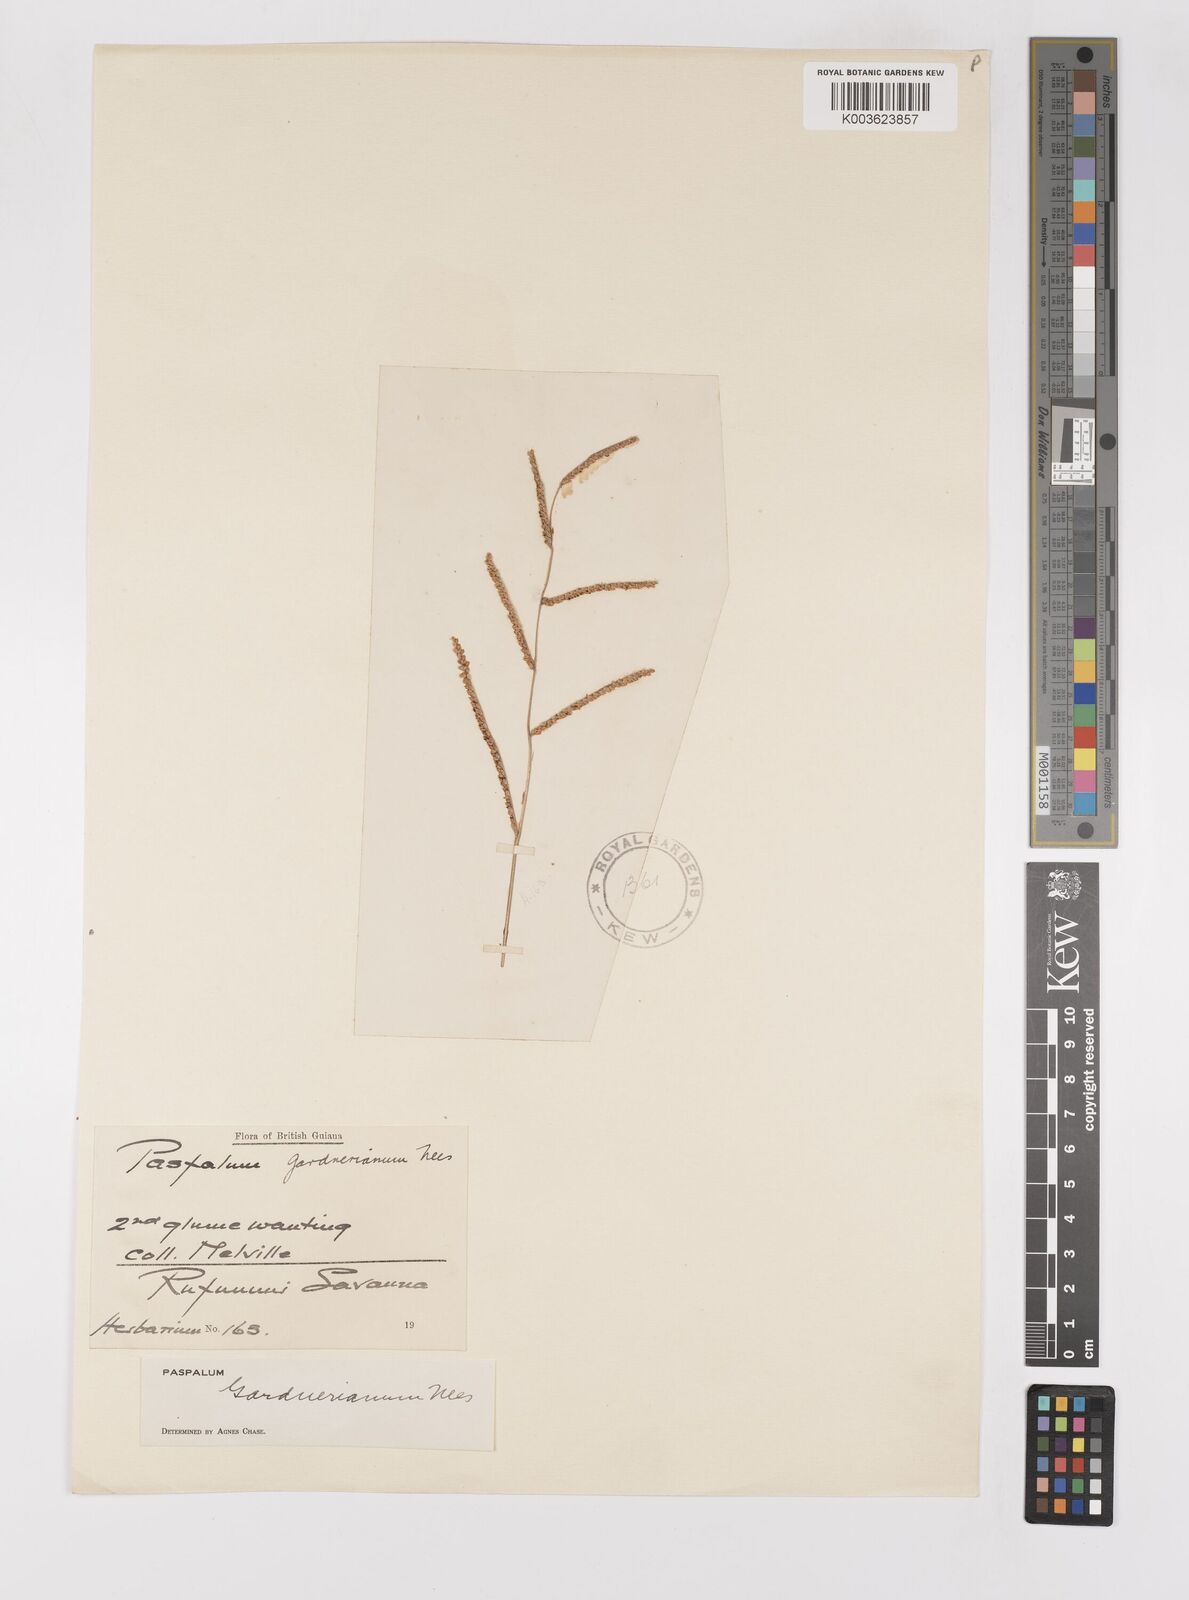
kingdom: Plantae
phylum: Tracheophyta
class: Liliopsida
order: Poales
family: Poaceae
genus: Paspalum
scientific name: Paspalum gardnerianum
